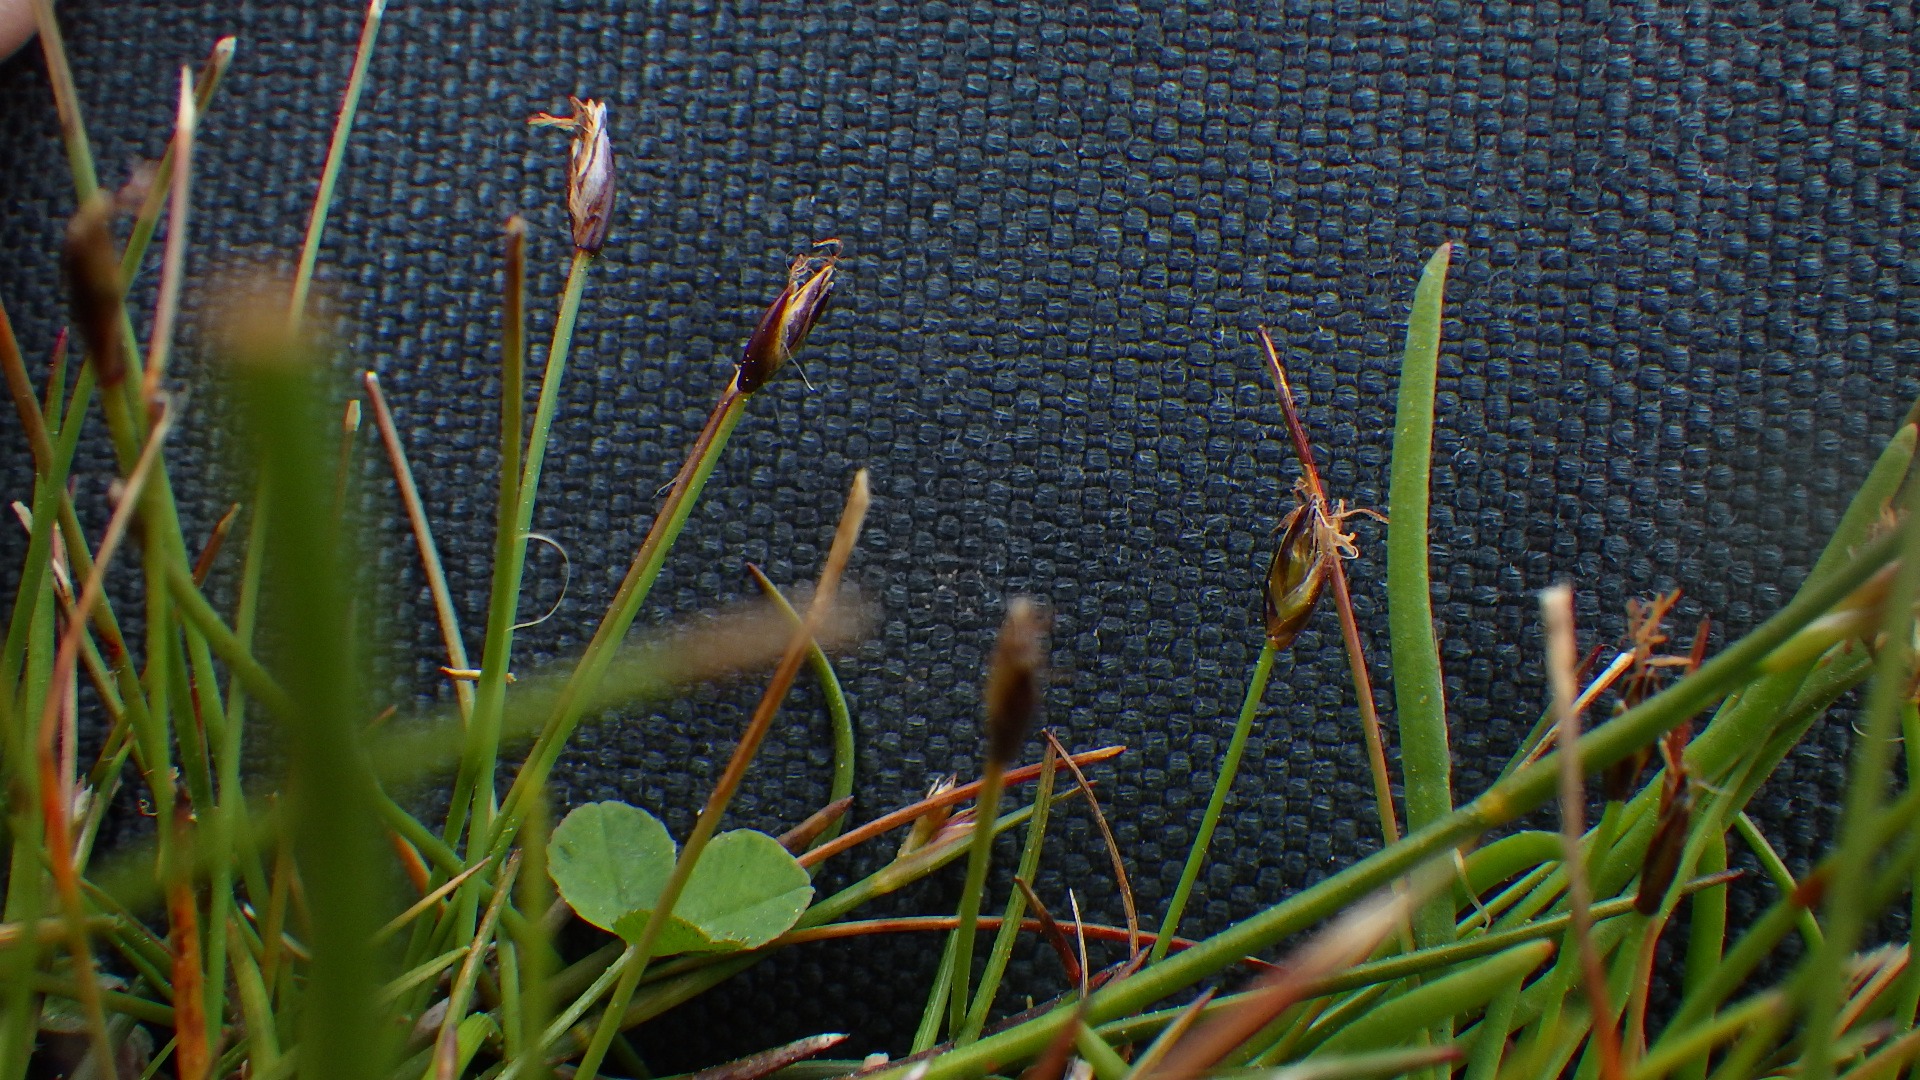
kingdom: Plantae
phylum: Tracheophyta
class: Liliopsida
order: Poales
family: Cyperaceae
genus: Eleocharis
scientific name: Eleocharis quinqueflora
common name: Fåblomstret kogleaks
